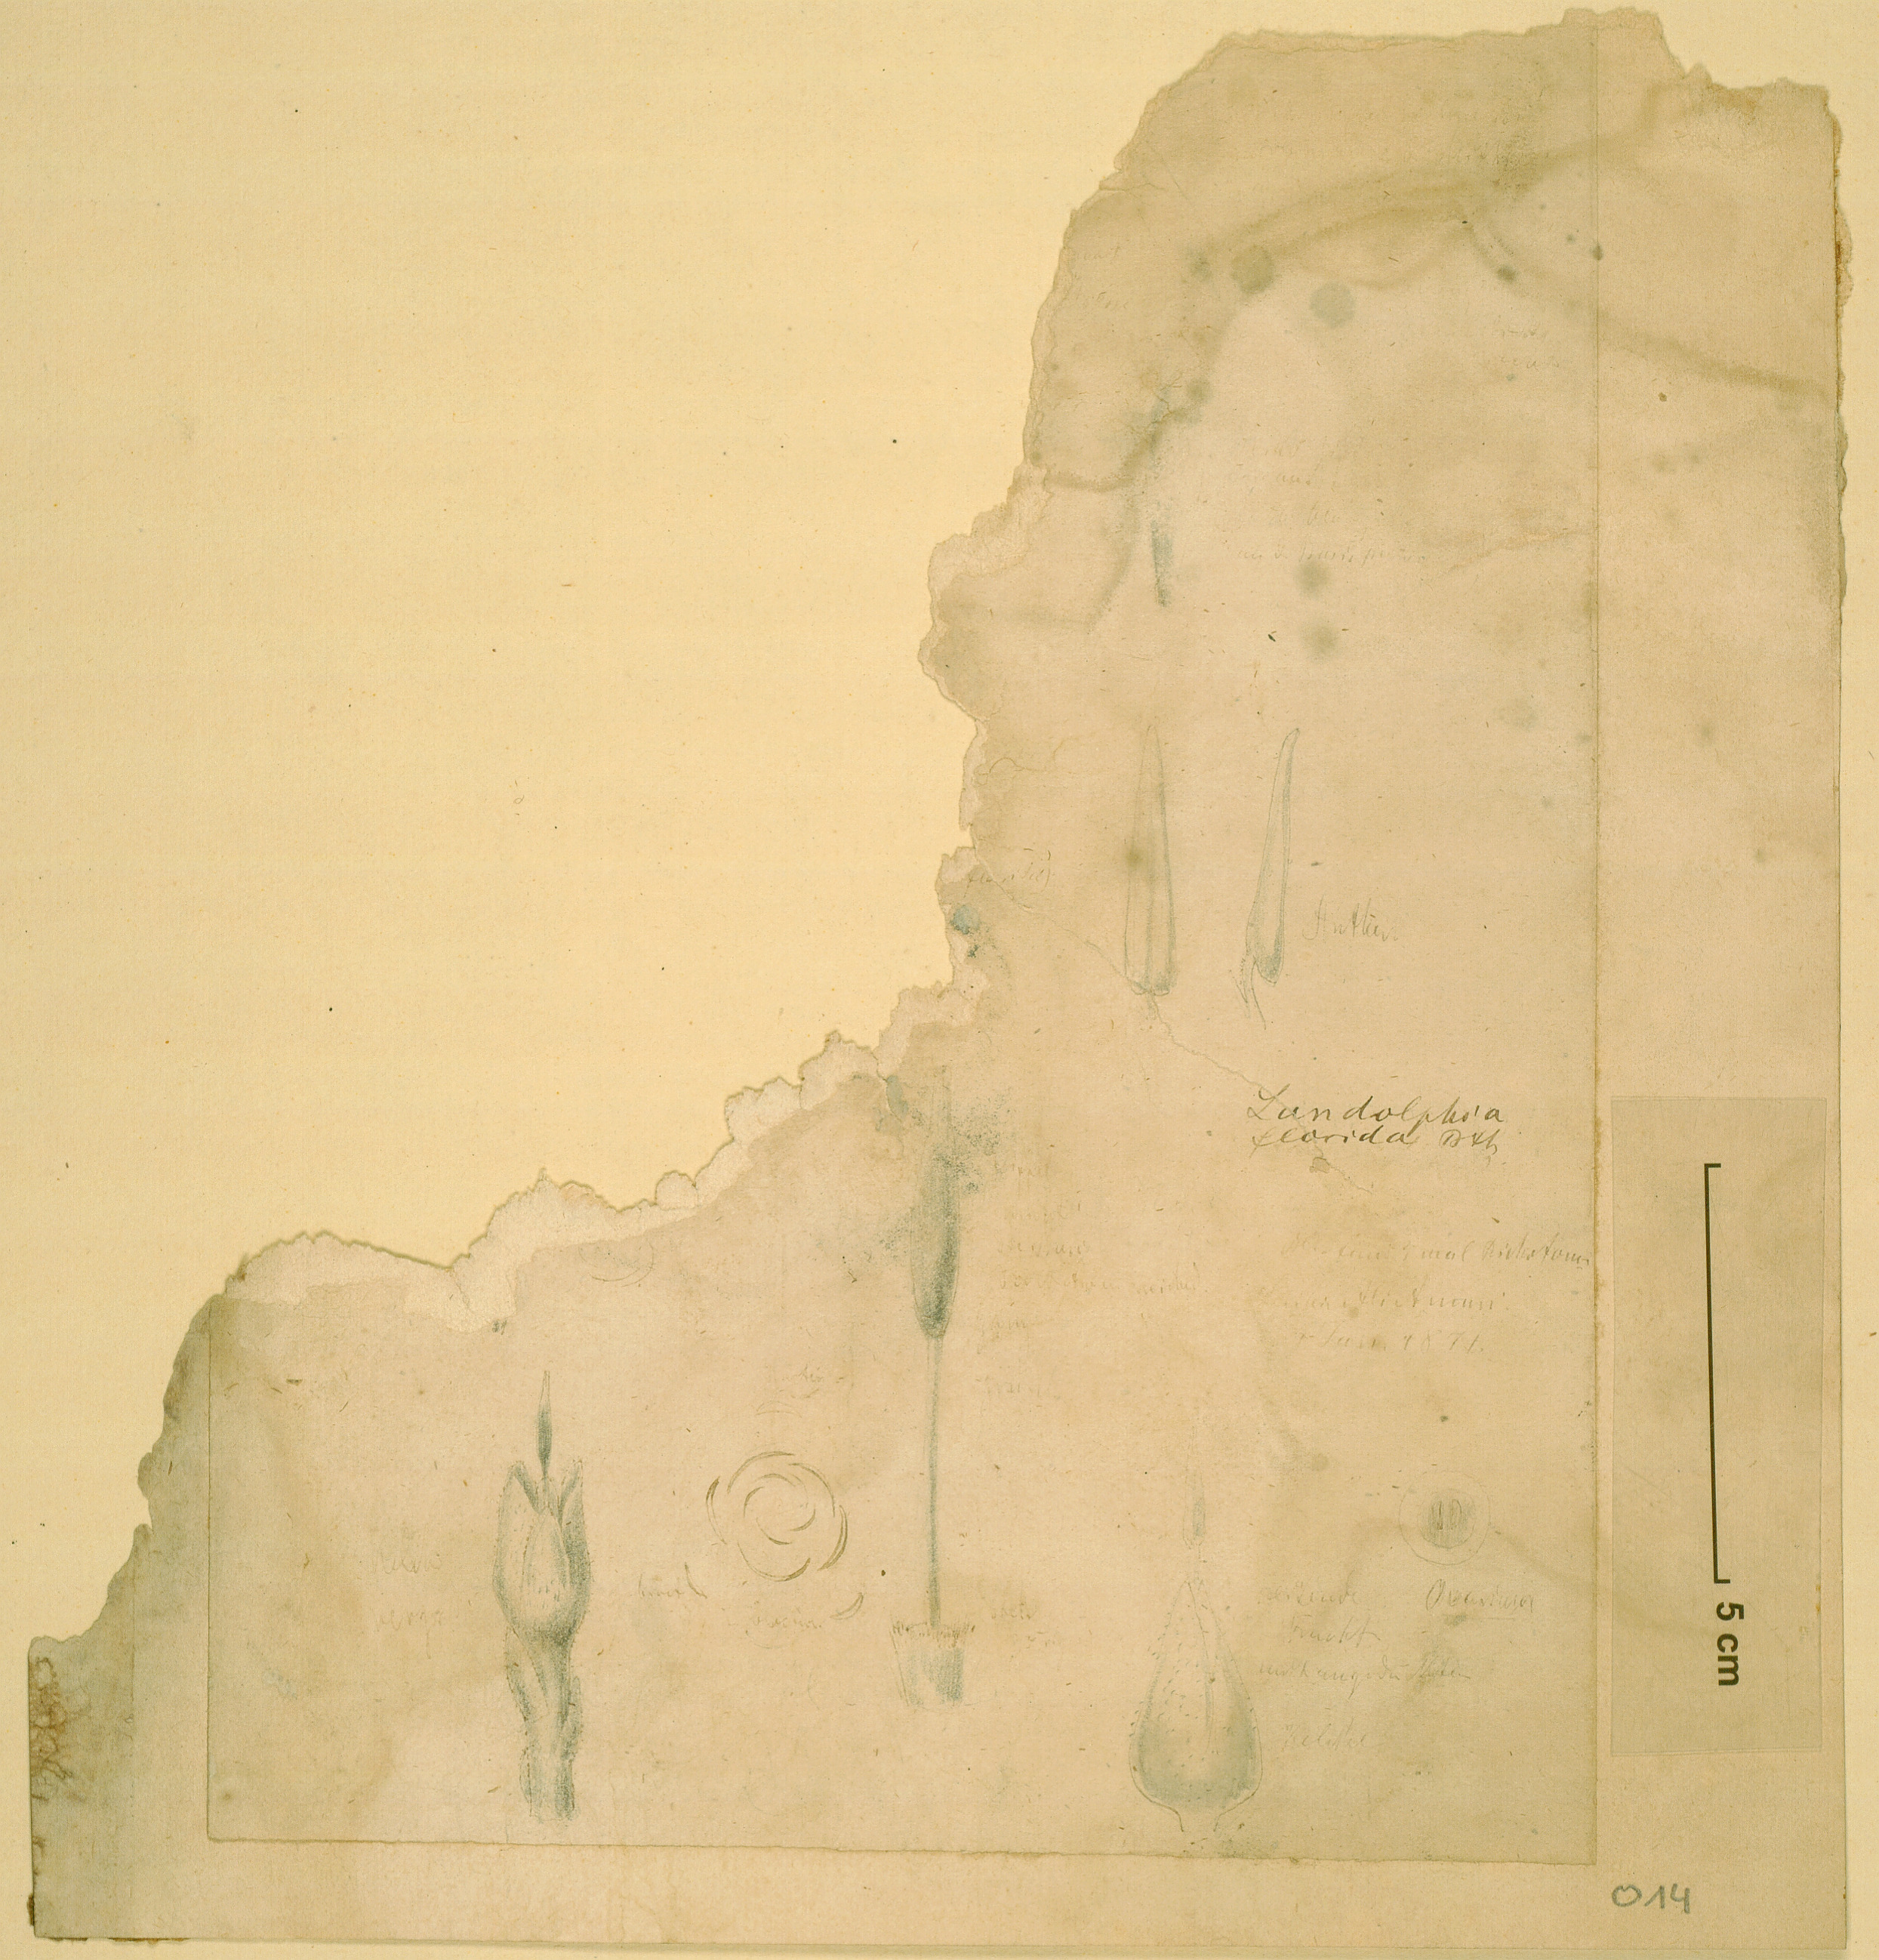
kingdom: Plantae
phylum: Tracheophyta
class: Magnoliopsida
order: Gentianales
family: Apocynaceae
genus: Saba
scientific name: Saba comorensis
